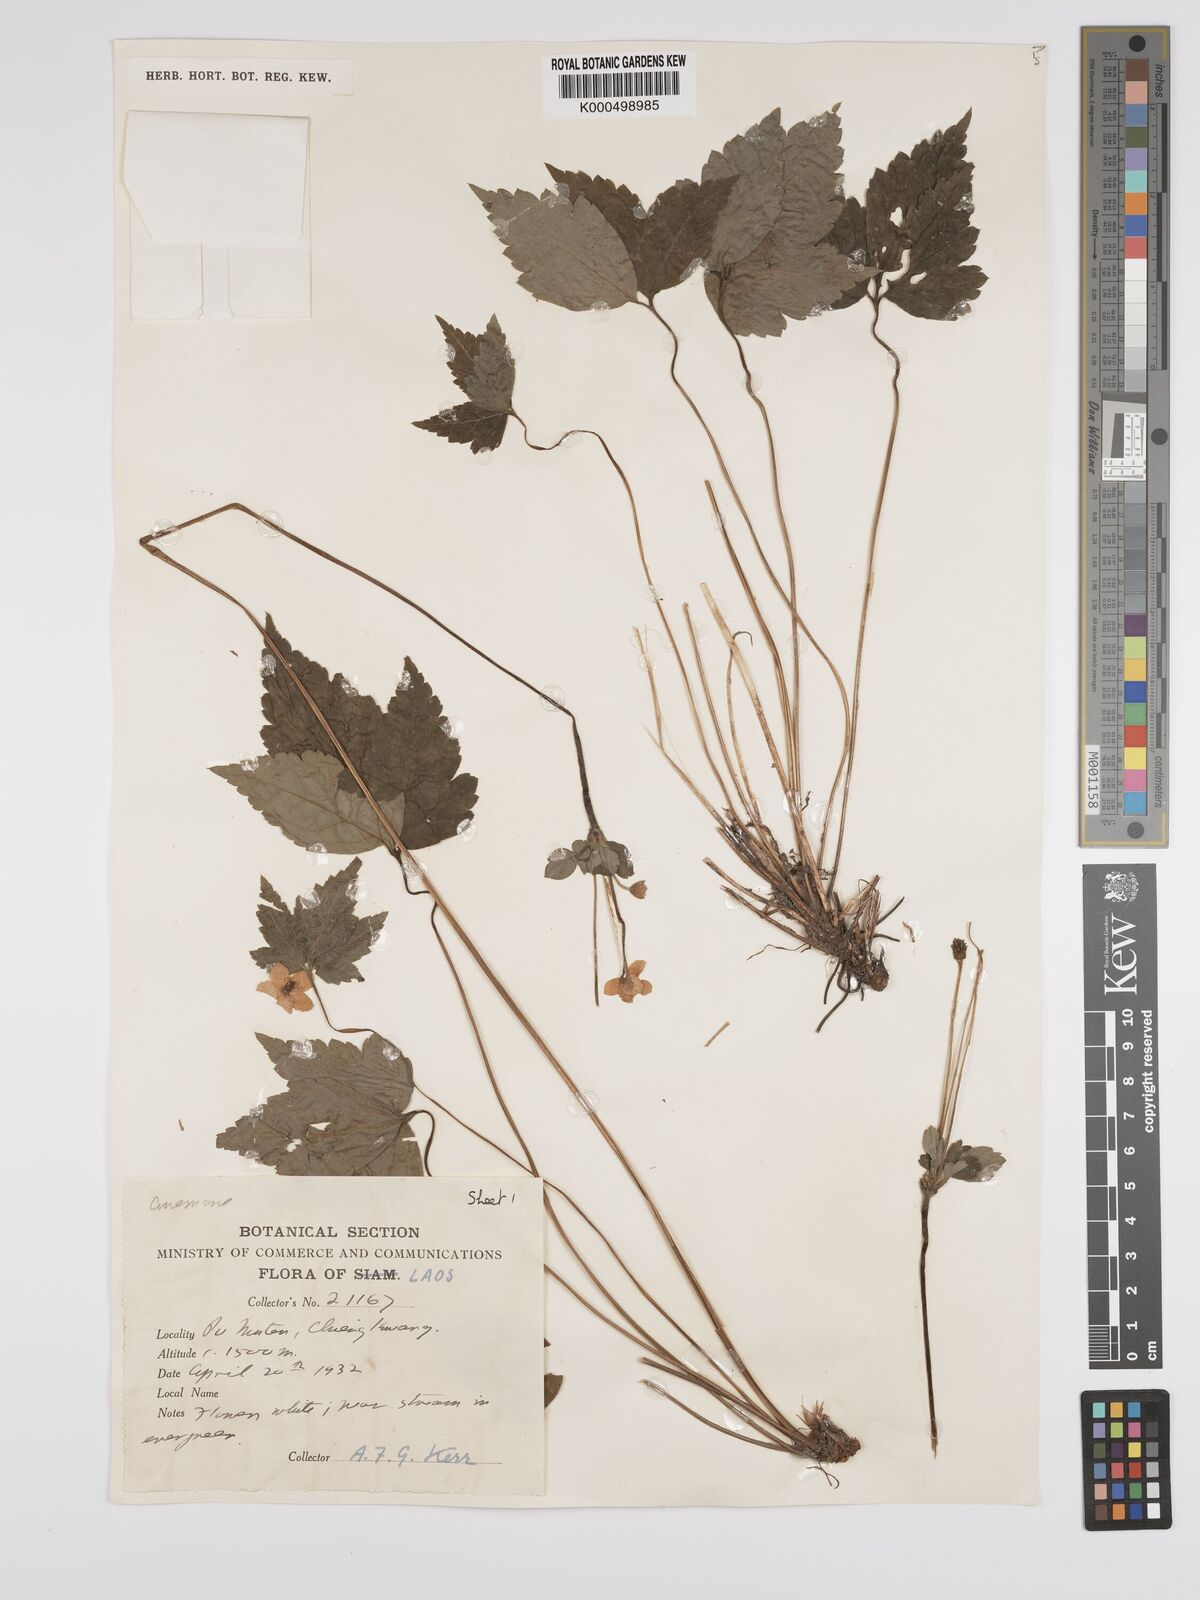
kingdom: Plantae
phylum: Tracheophyta
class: Magnoliopsida
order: Ranunculales
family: Ranunculaceae
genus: Anemone
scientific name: Anemone
